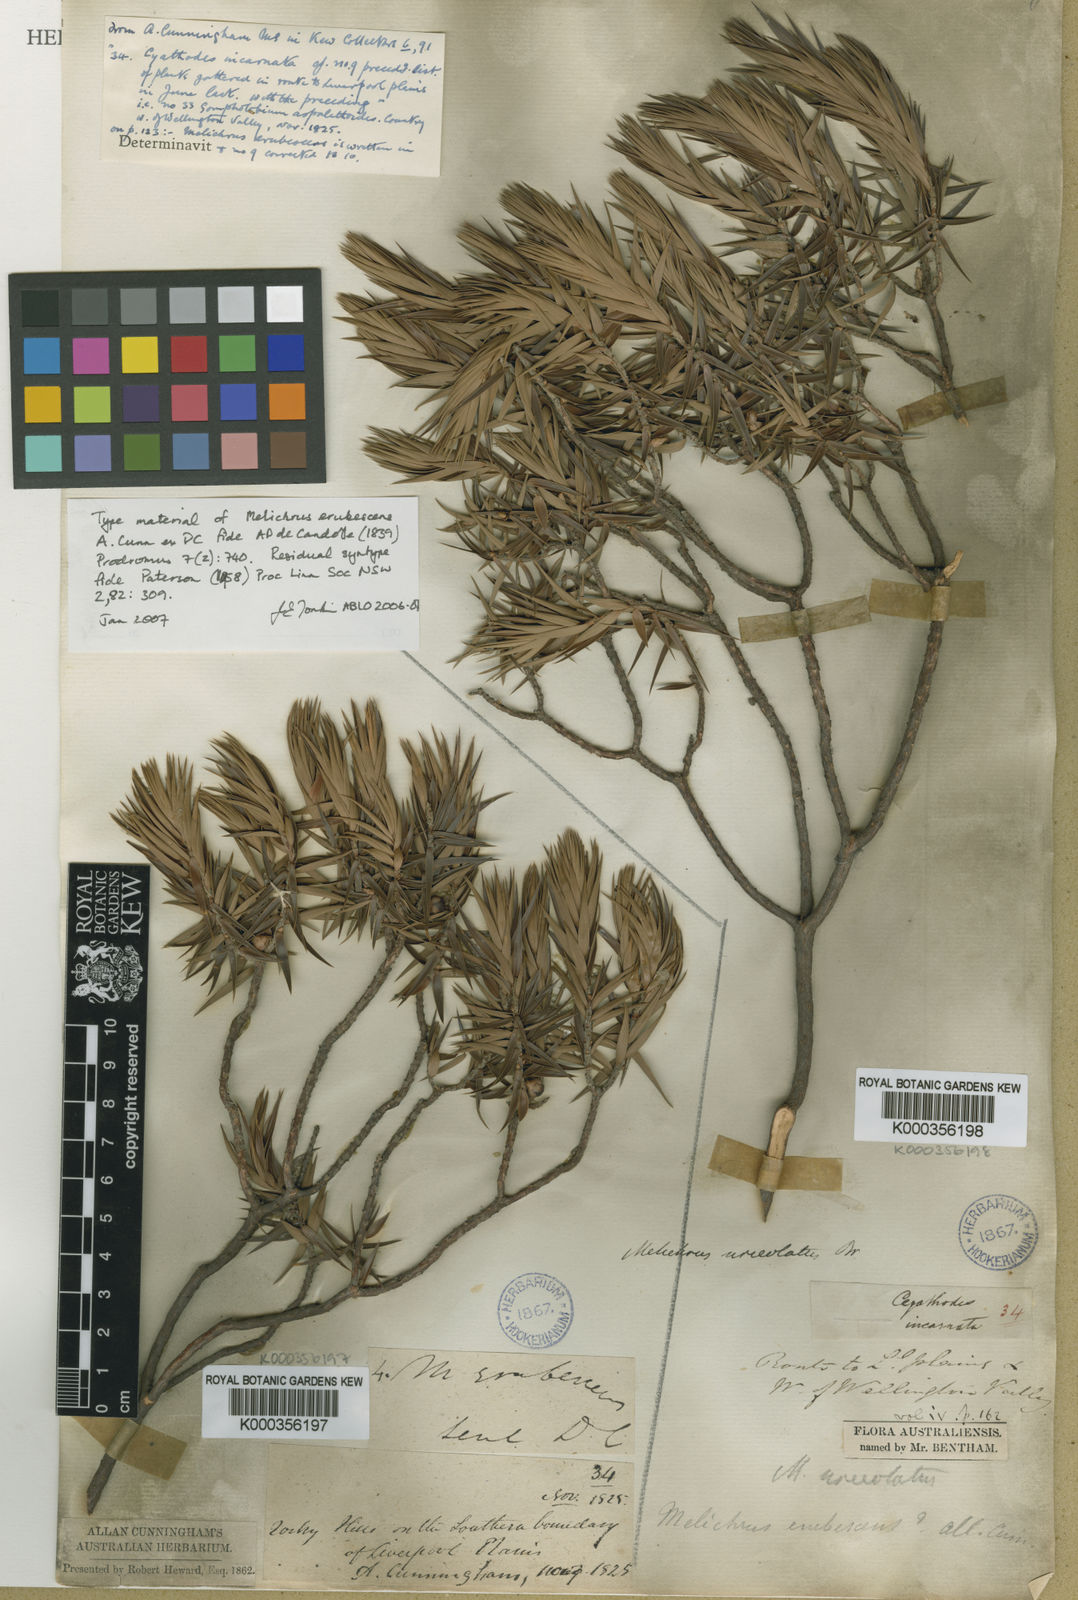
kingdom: Plantae
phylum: Tracheophyta
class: Magnoliopsida
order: Ericales
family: Ericaceae
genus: Melichrus
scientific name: Melichrus erubescens
